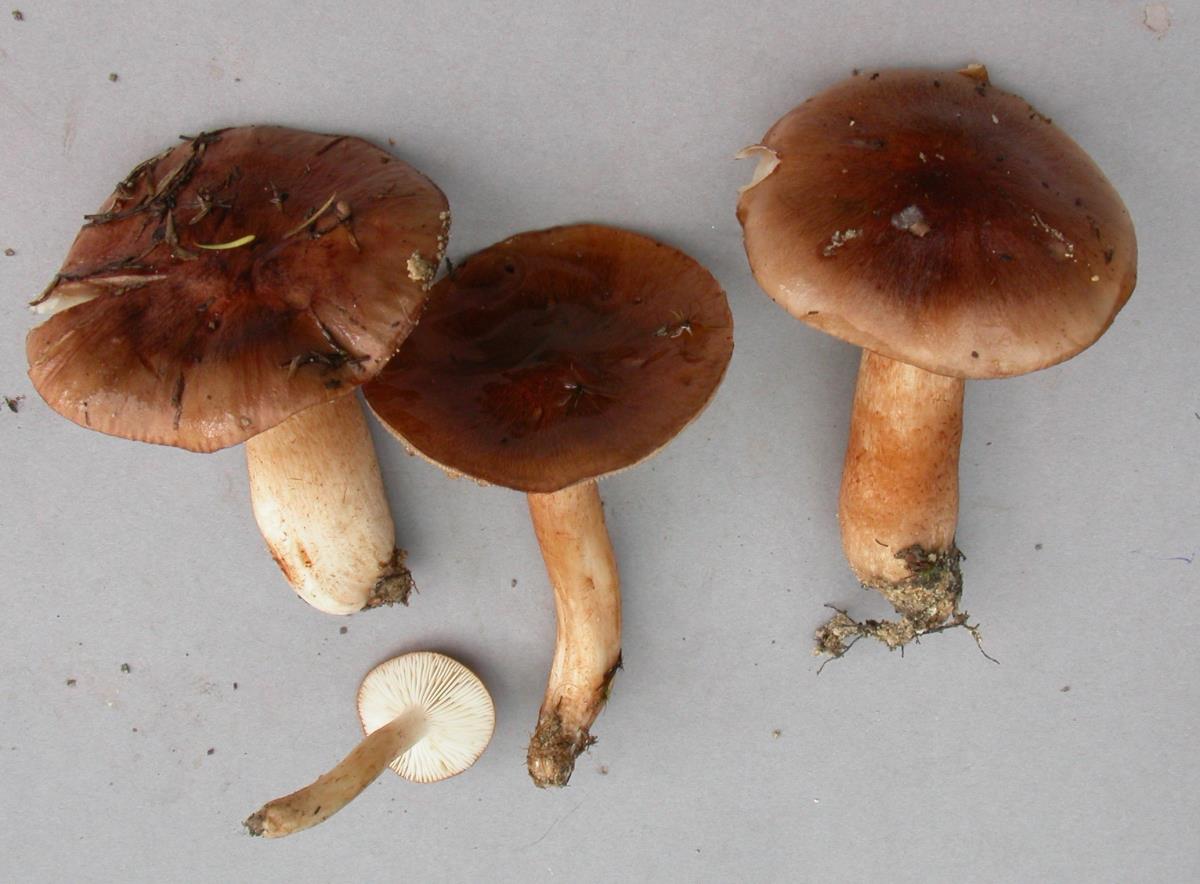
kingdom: Fungi
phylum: Basidiomycota
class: Agaricomycetes
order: Agaricales
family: Tricholomataceae
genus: Tricholoma
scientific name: Tricholoma stans
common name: Upright knight
